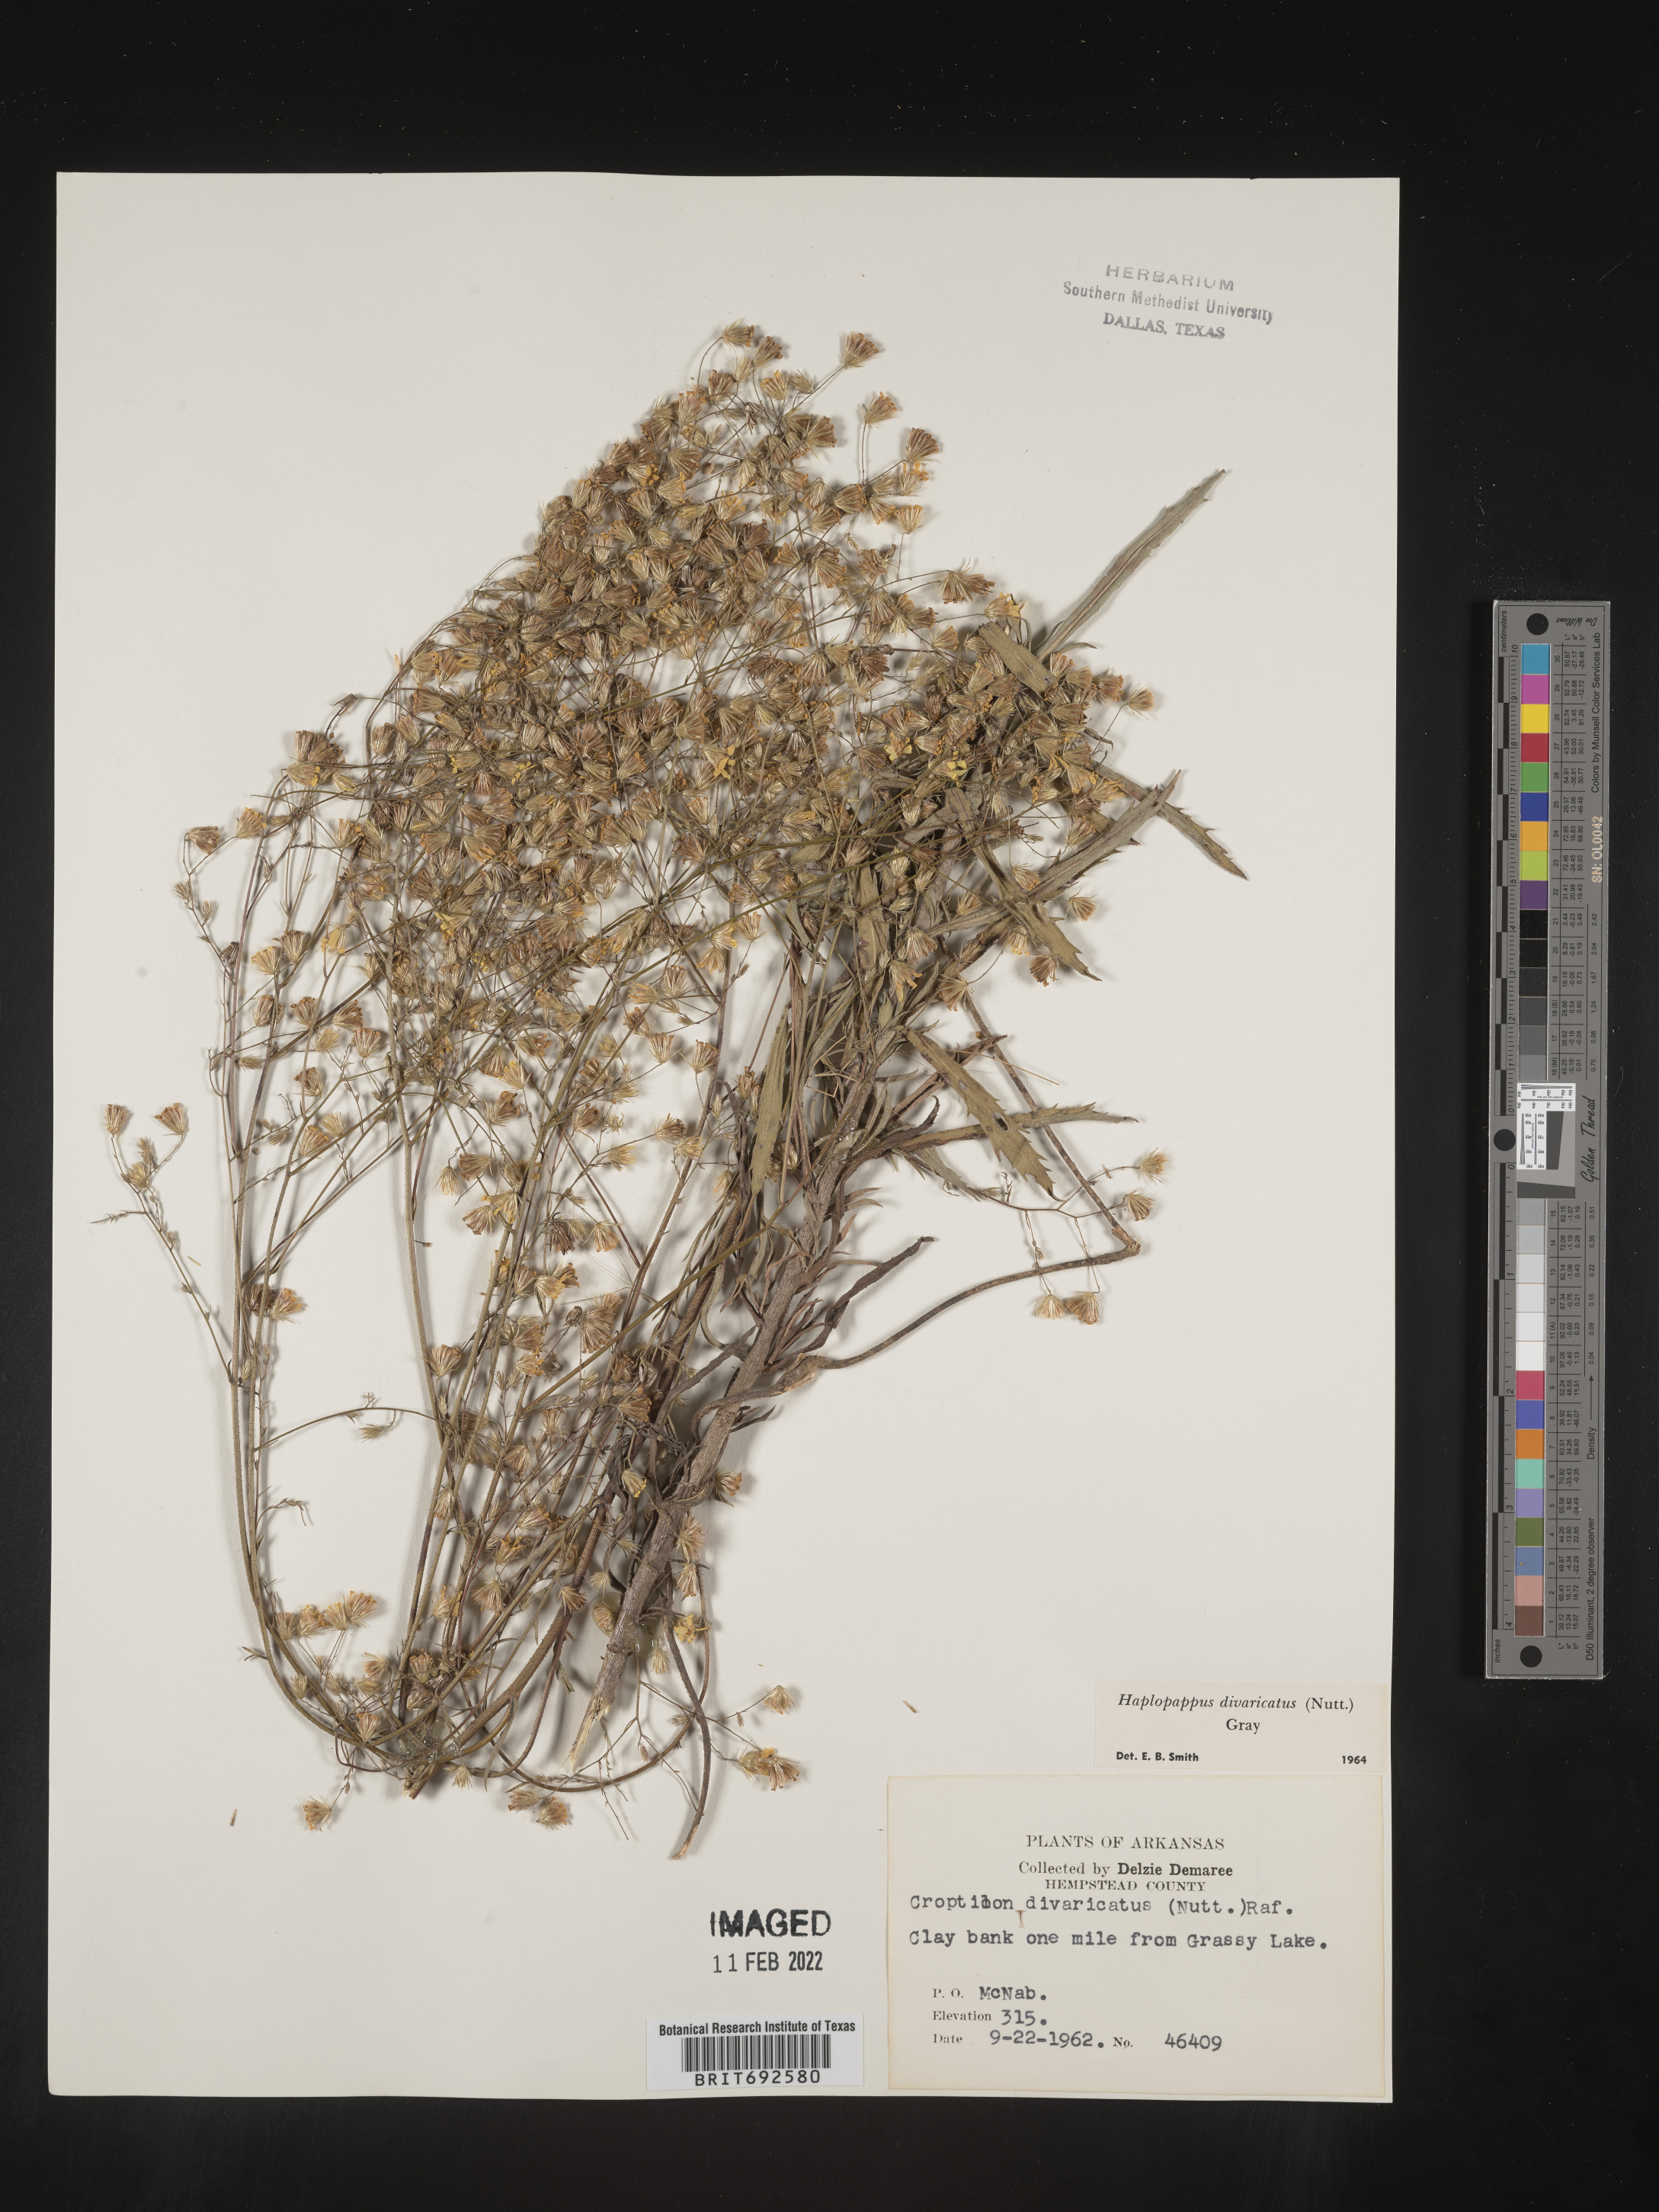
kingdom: Plantae
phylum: Tracheophyta
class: Magnoliopsida
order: Asterales
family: Asteraceae
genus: Croptilon
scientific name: Croptilon divaricatum
